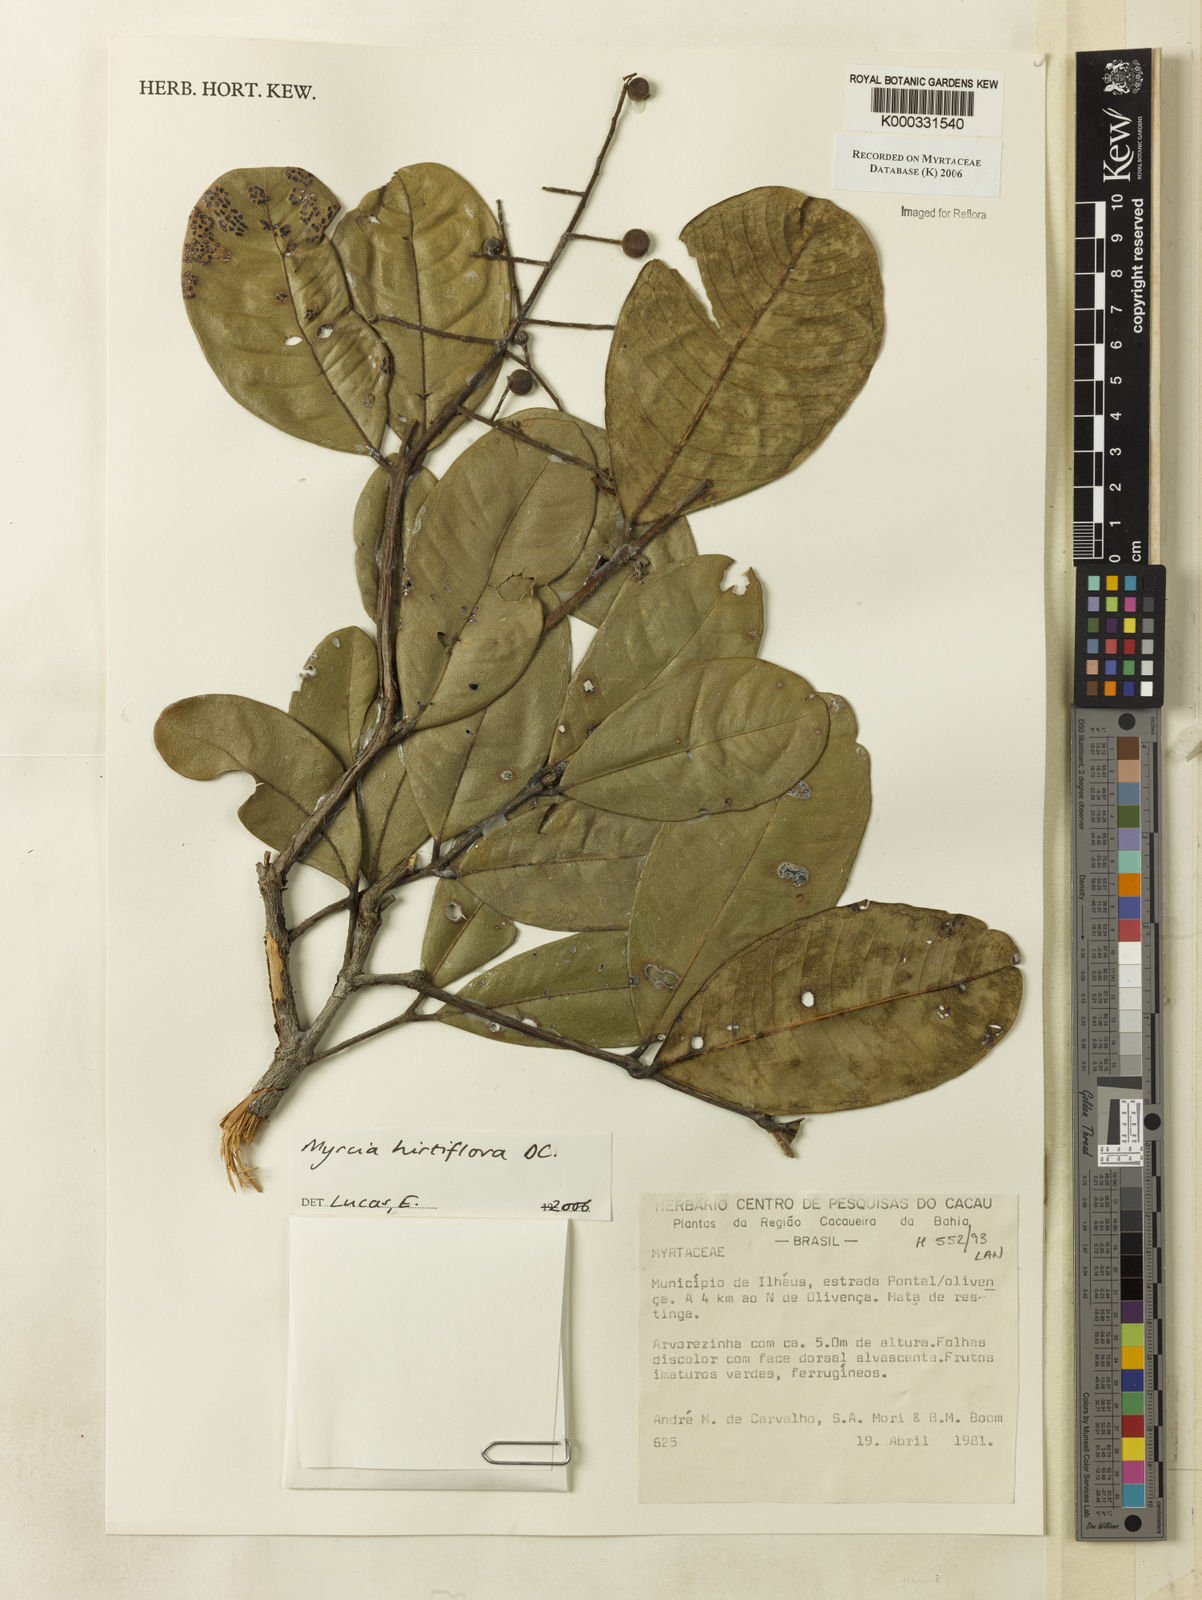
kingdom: Plantae
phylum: Tracheophyta
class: Magnoliopsida
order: Myrtales
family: Myrtaceae
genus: Myrcia
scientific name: Myrcia tomentosa
